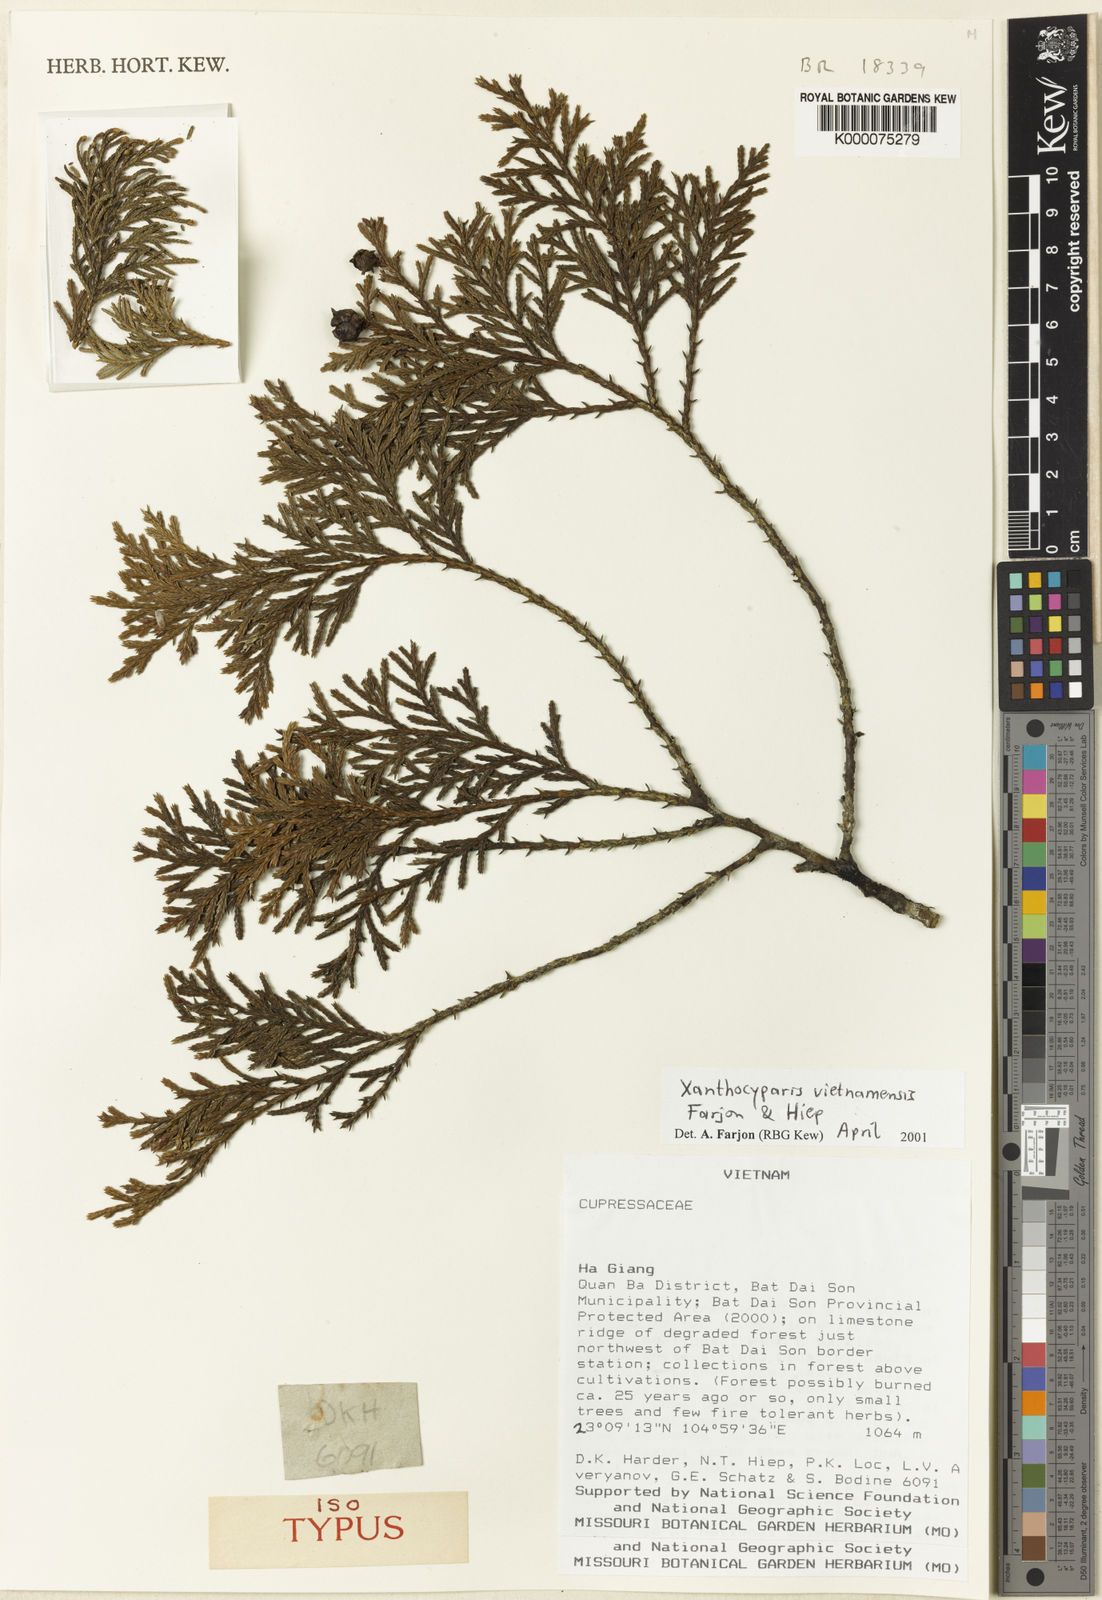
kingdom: Plantae
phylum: Tracheophyta
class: Pinopsida
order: Pinales
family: Cupressaceae
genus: Xanthocyparis
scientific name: Xanthocyparis
